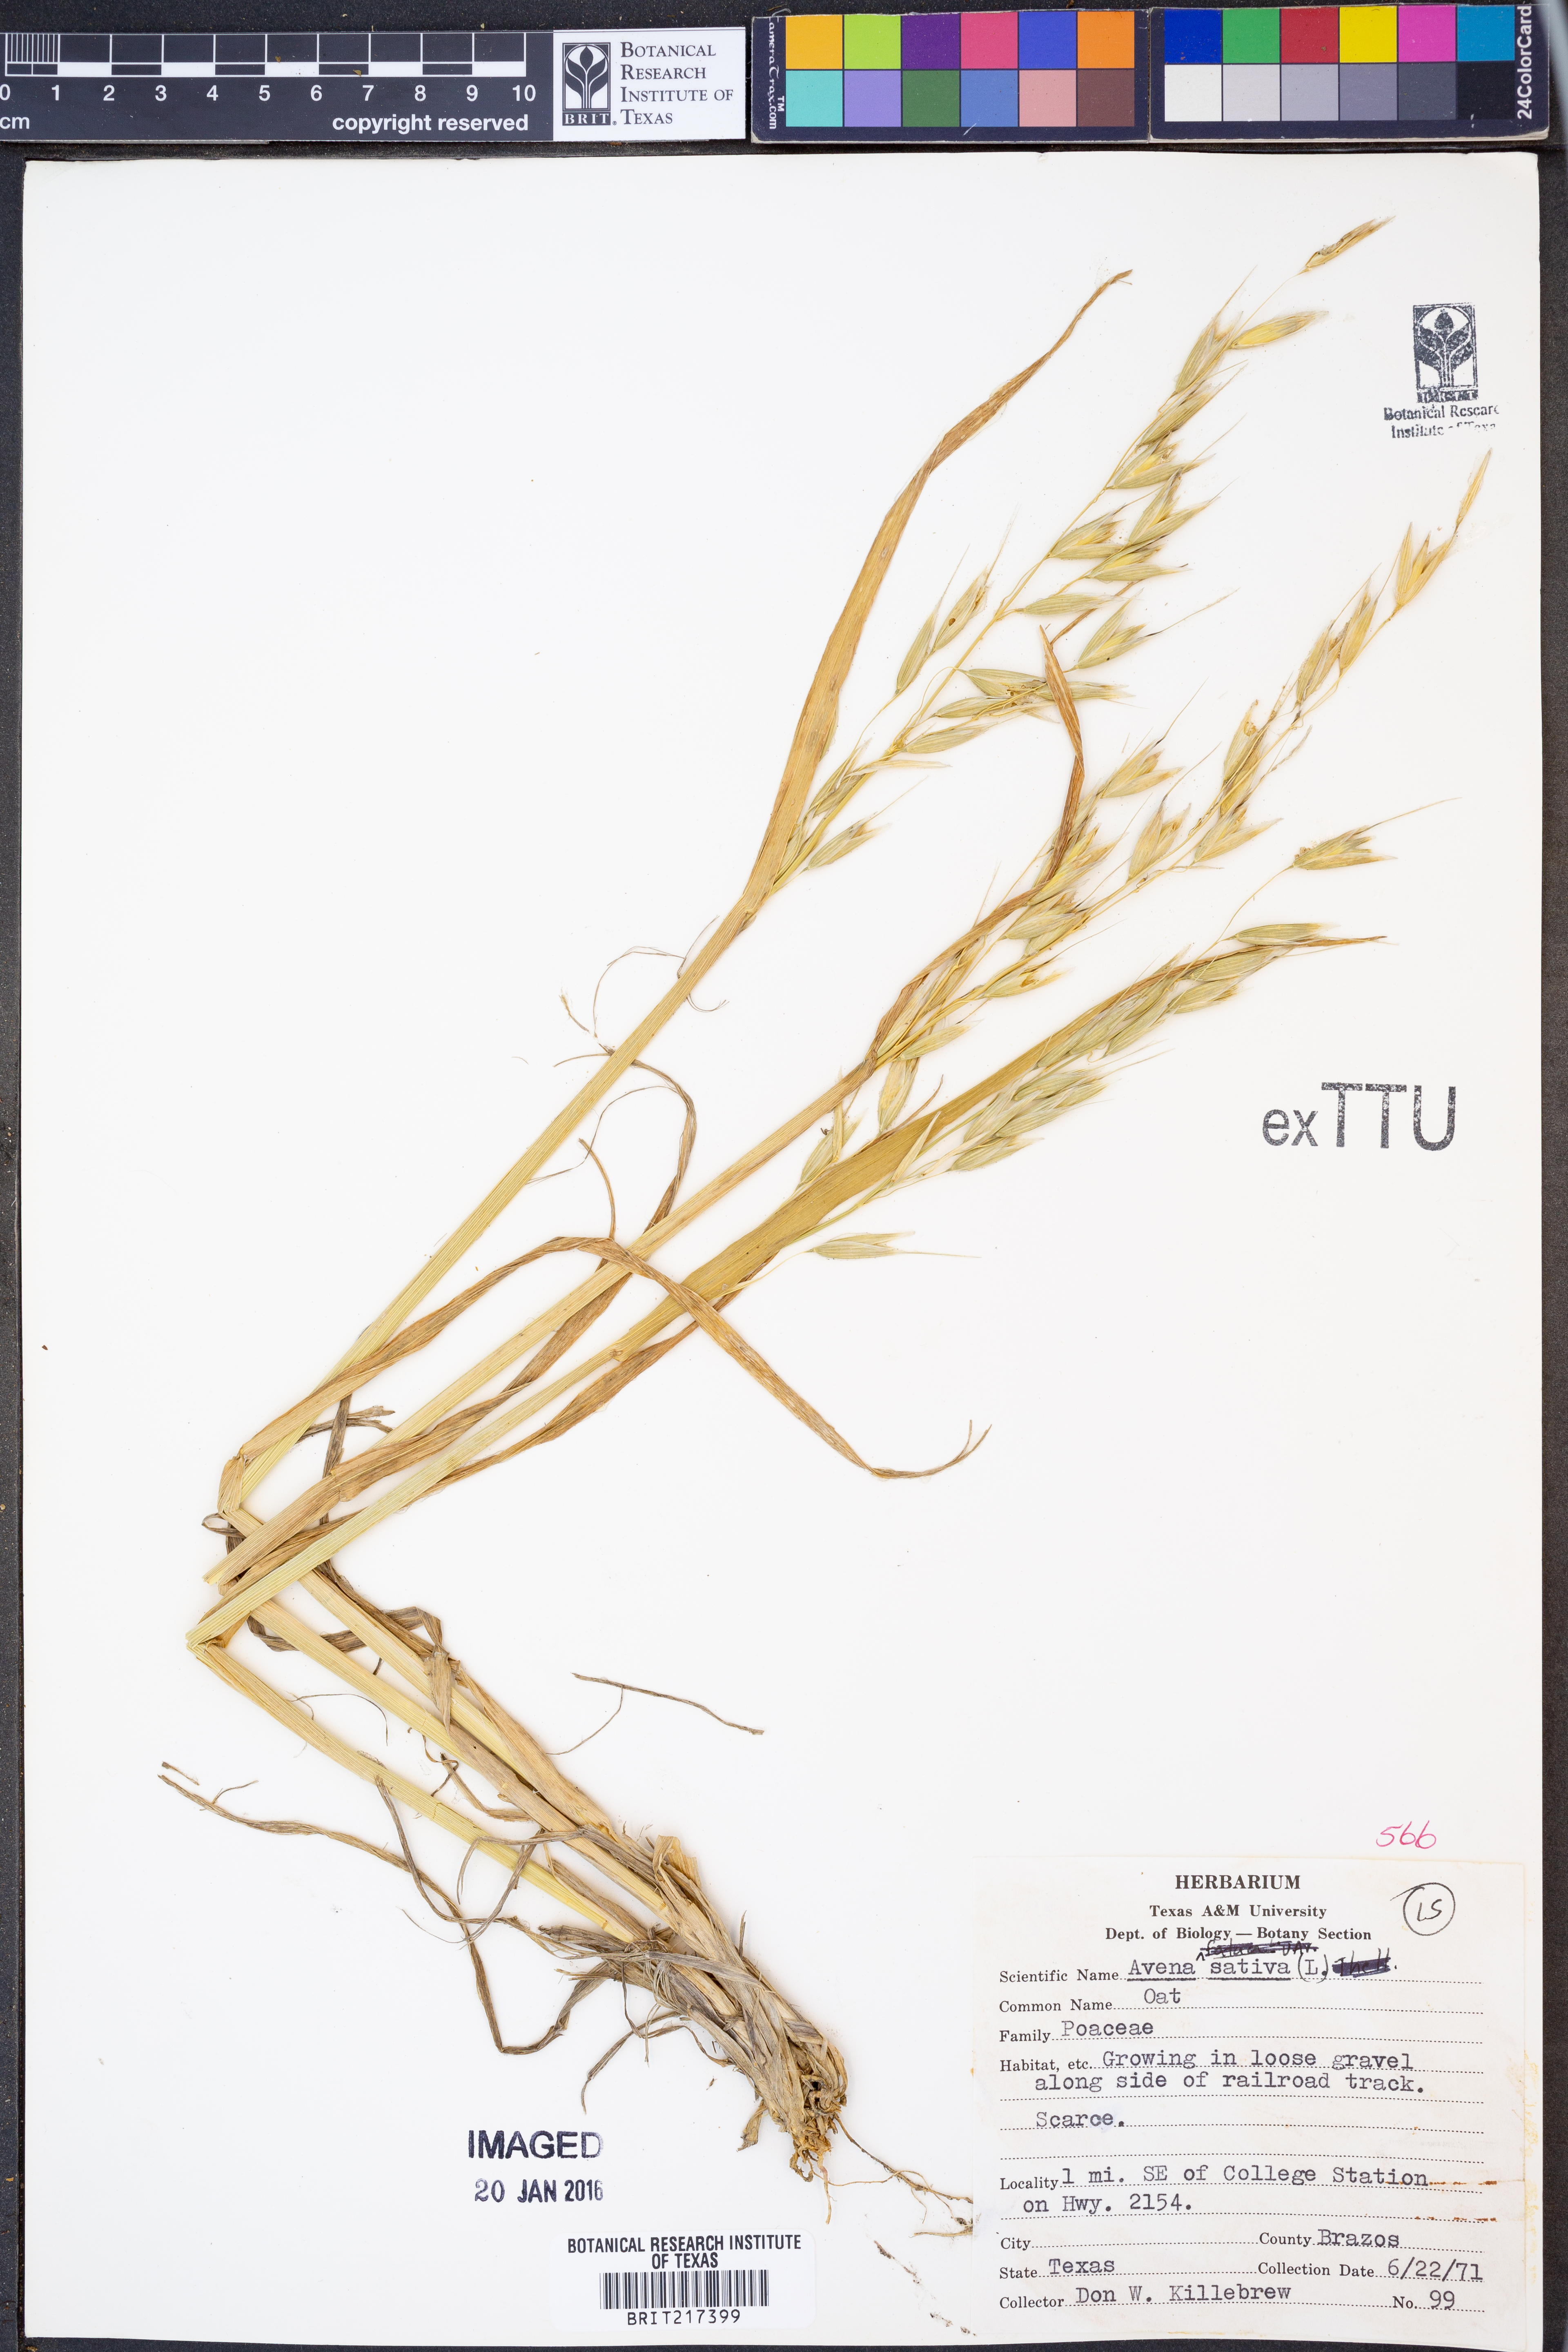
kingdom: Plantae
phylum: Tracheophyta
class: Liliopsida
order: Poales
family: Poaceae
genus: Avena
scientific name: Avena sativa
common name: Oat
